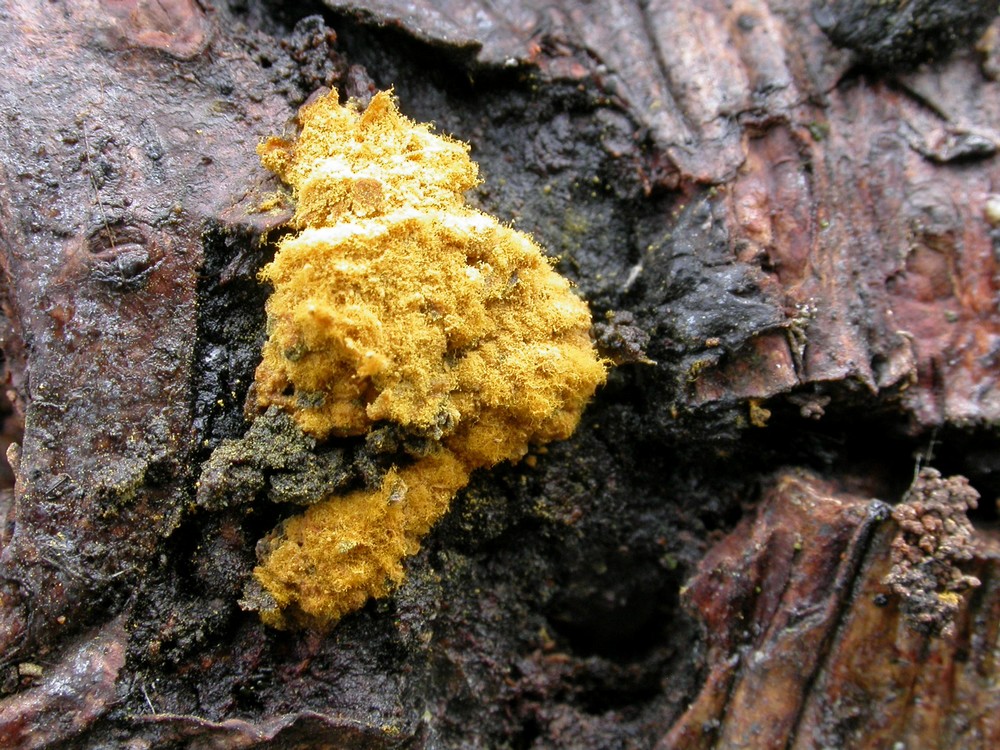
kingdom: Protozoa
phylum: Mycetozoa
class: Myxomycetes
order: Trichiales
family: Trichiaceae
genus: Oligonema
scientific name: Oligonema persimile
